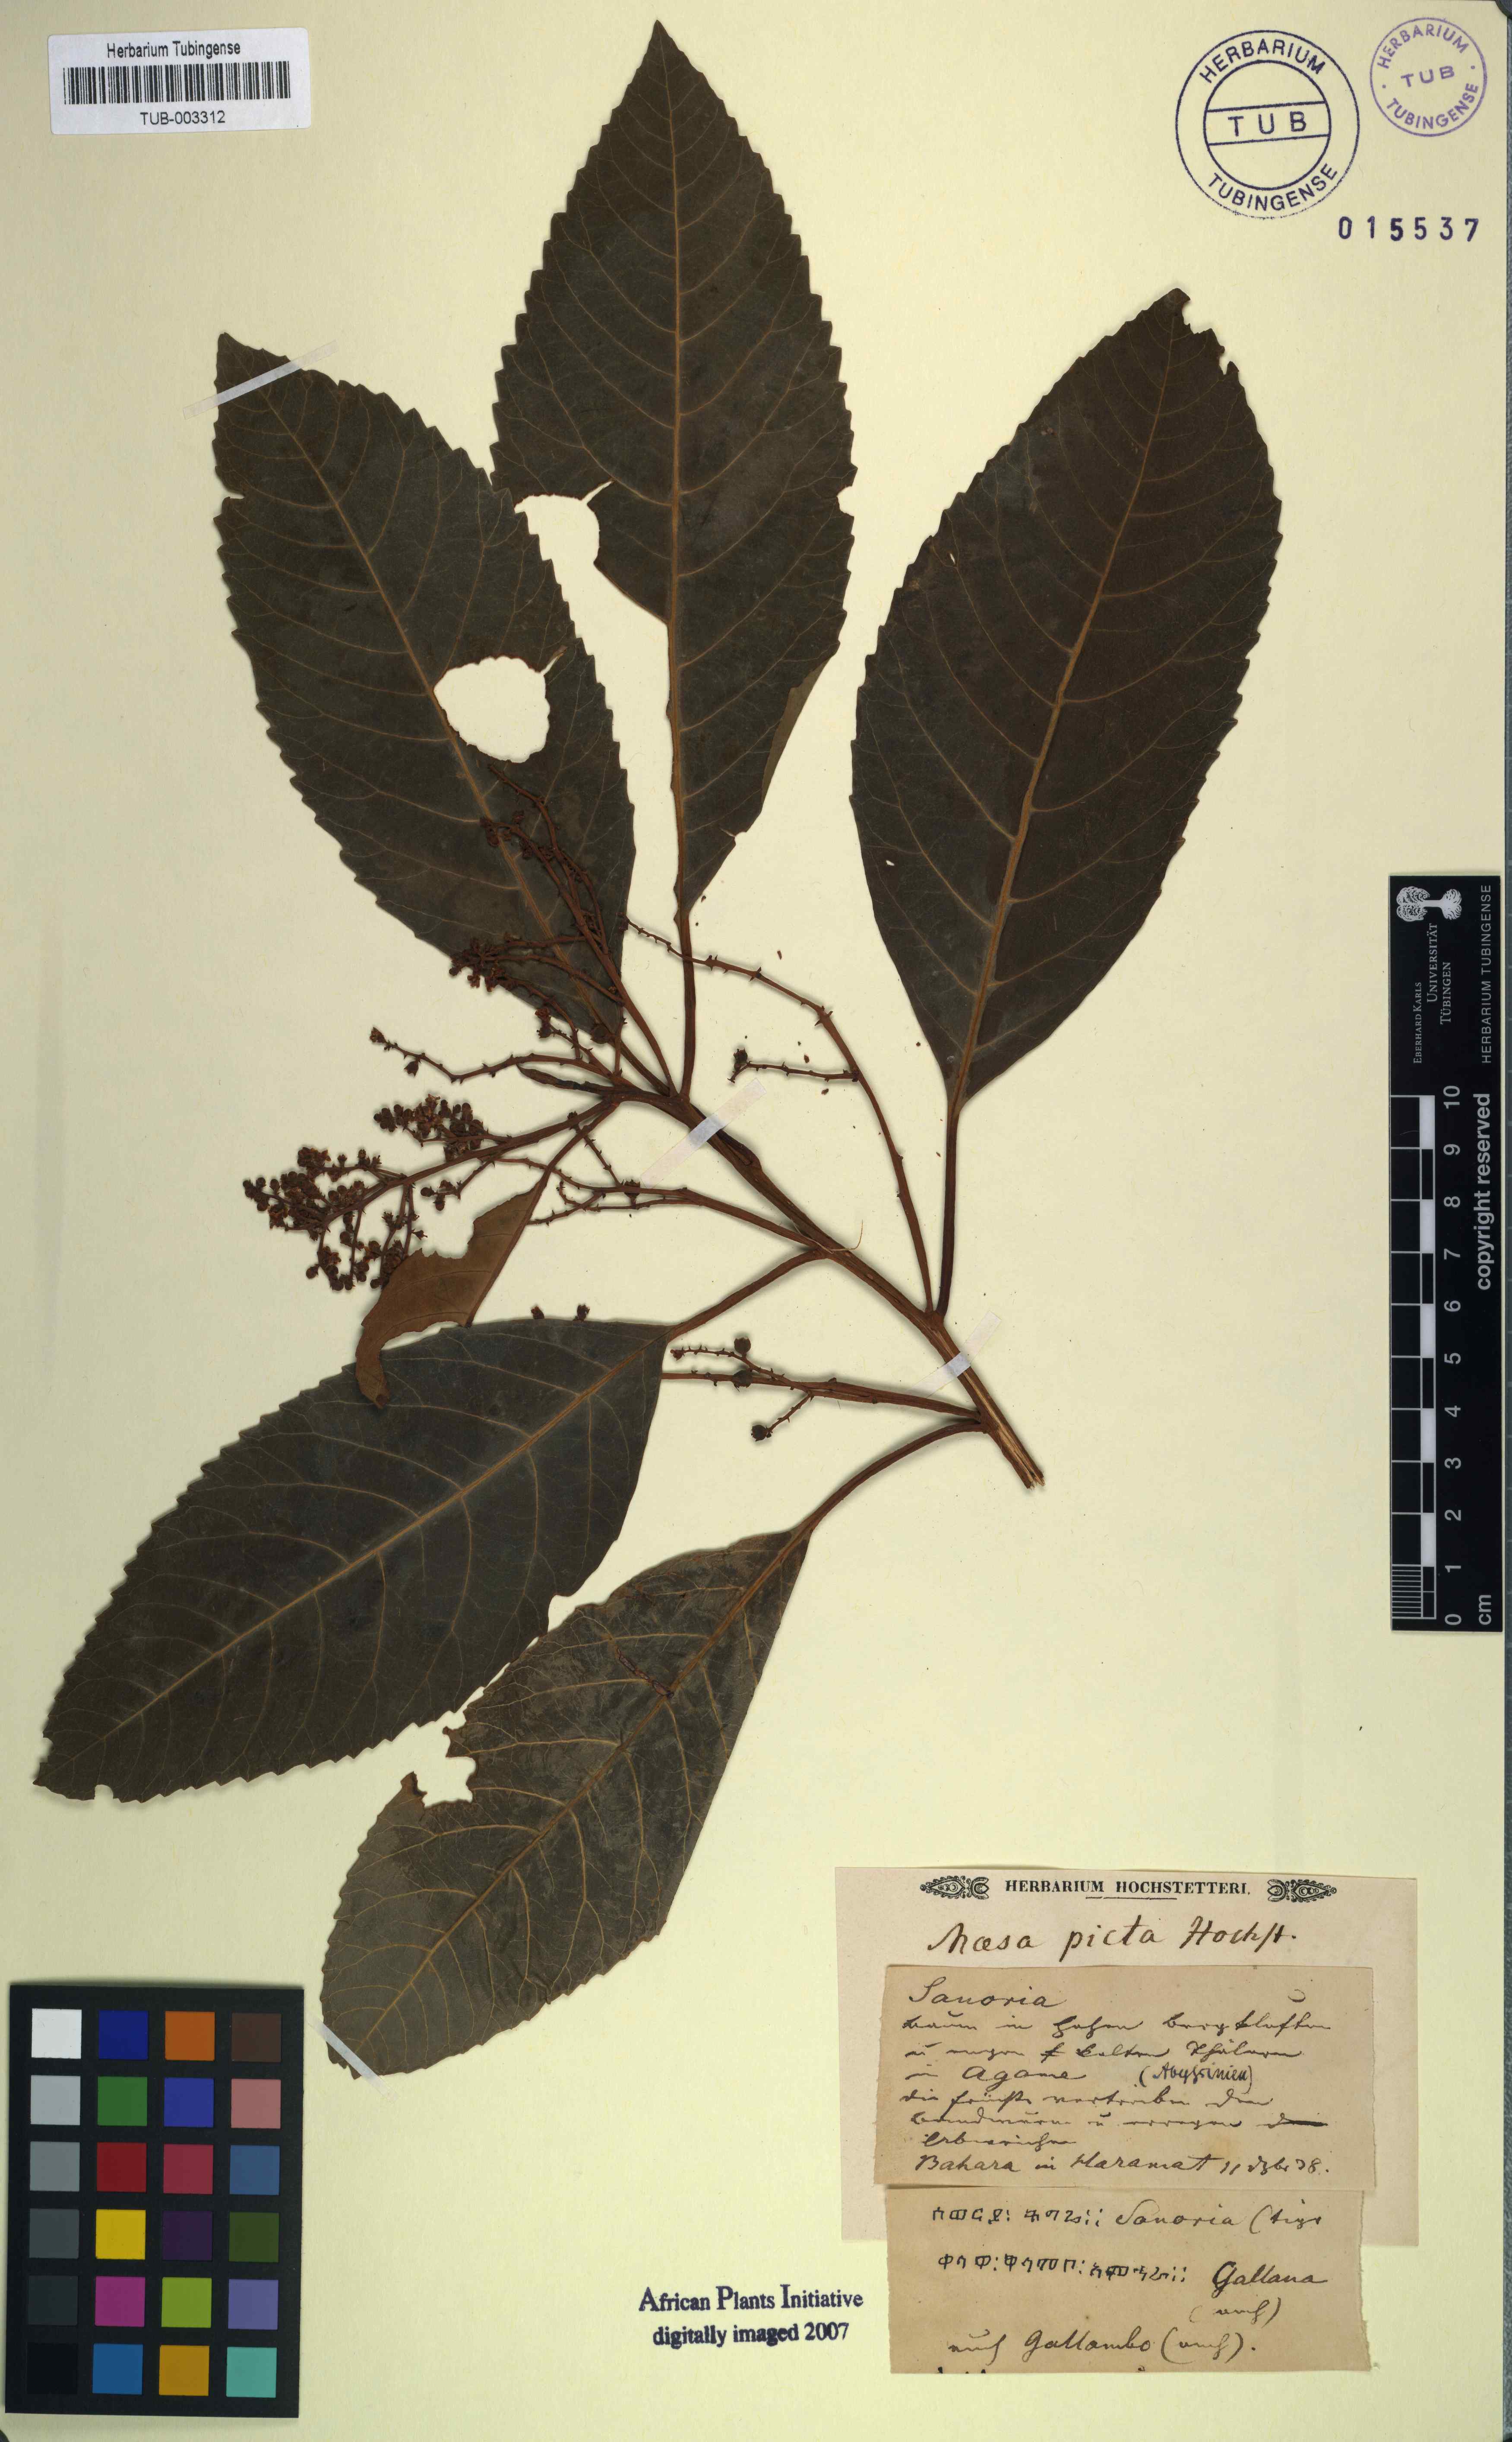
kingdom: Plantae
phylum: Tracheophyta
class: Magnoliopsida
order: Ericales
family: Primulaceae
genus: Maesa
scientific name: Maesa lanceolata
